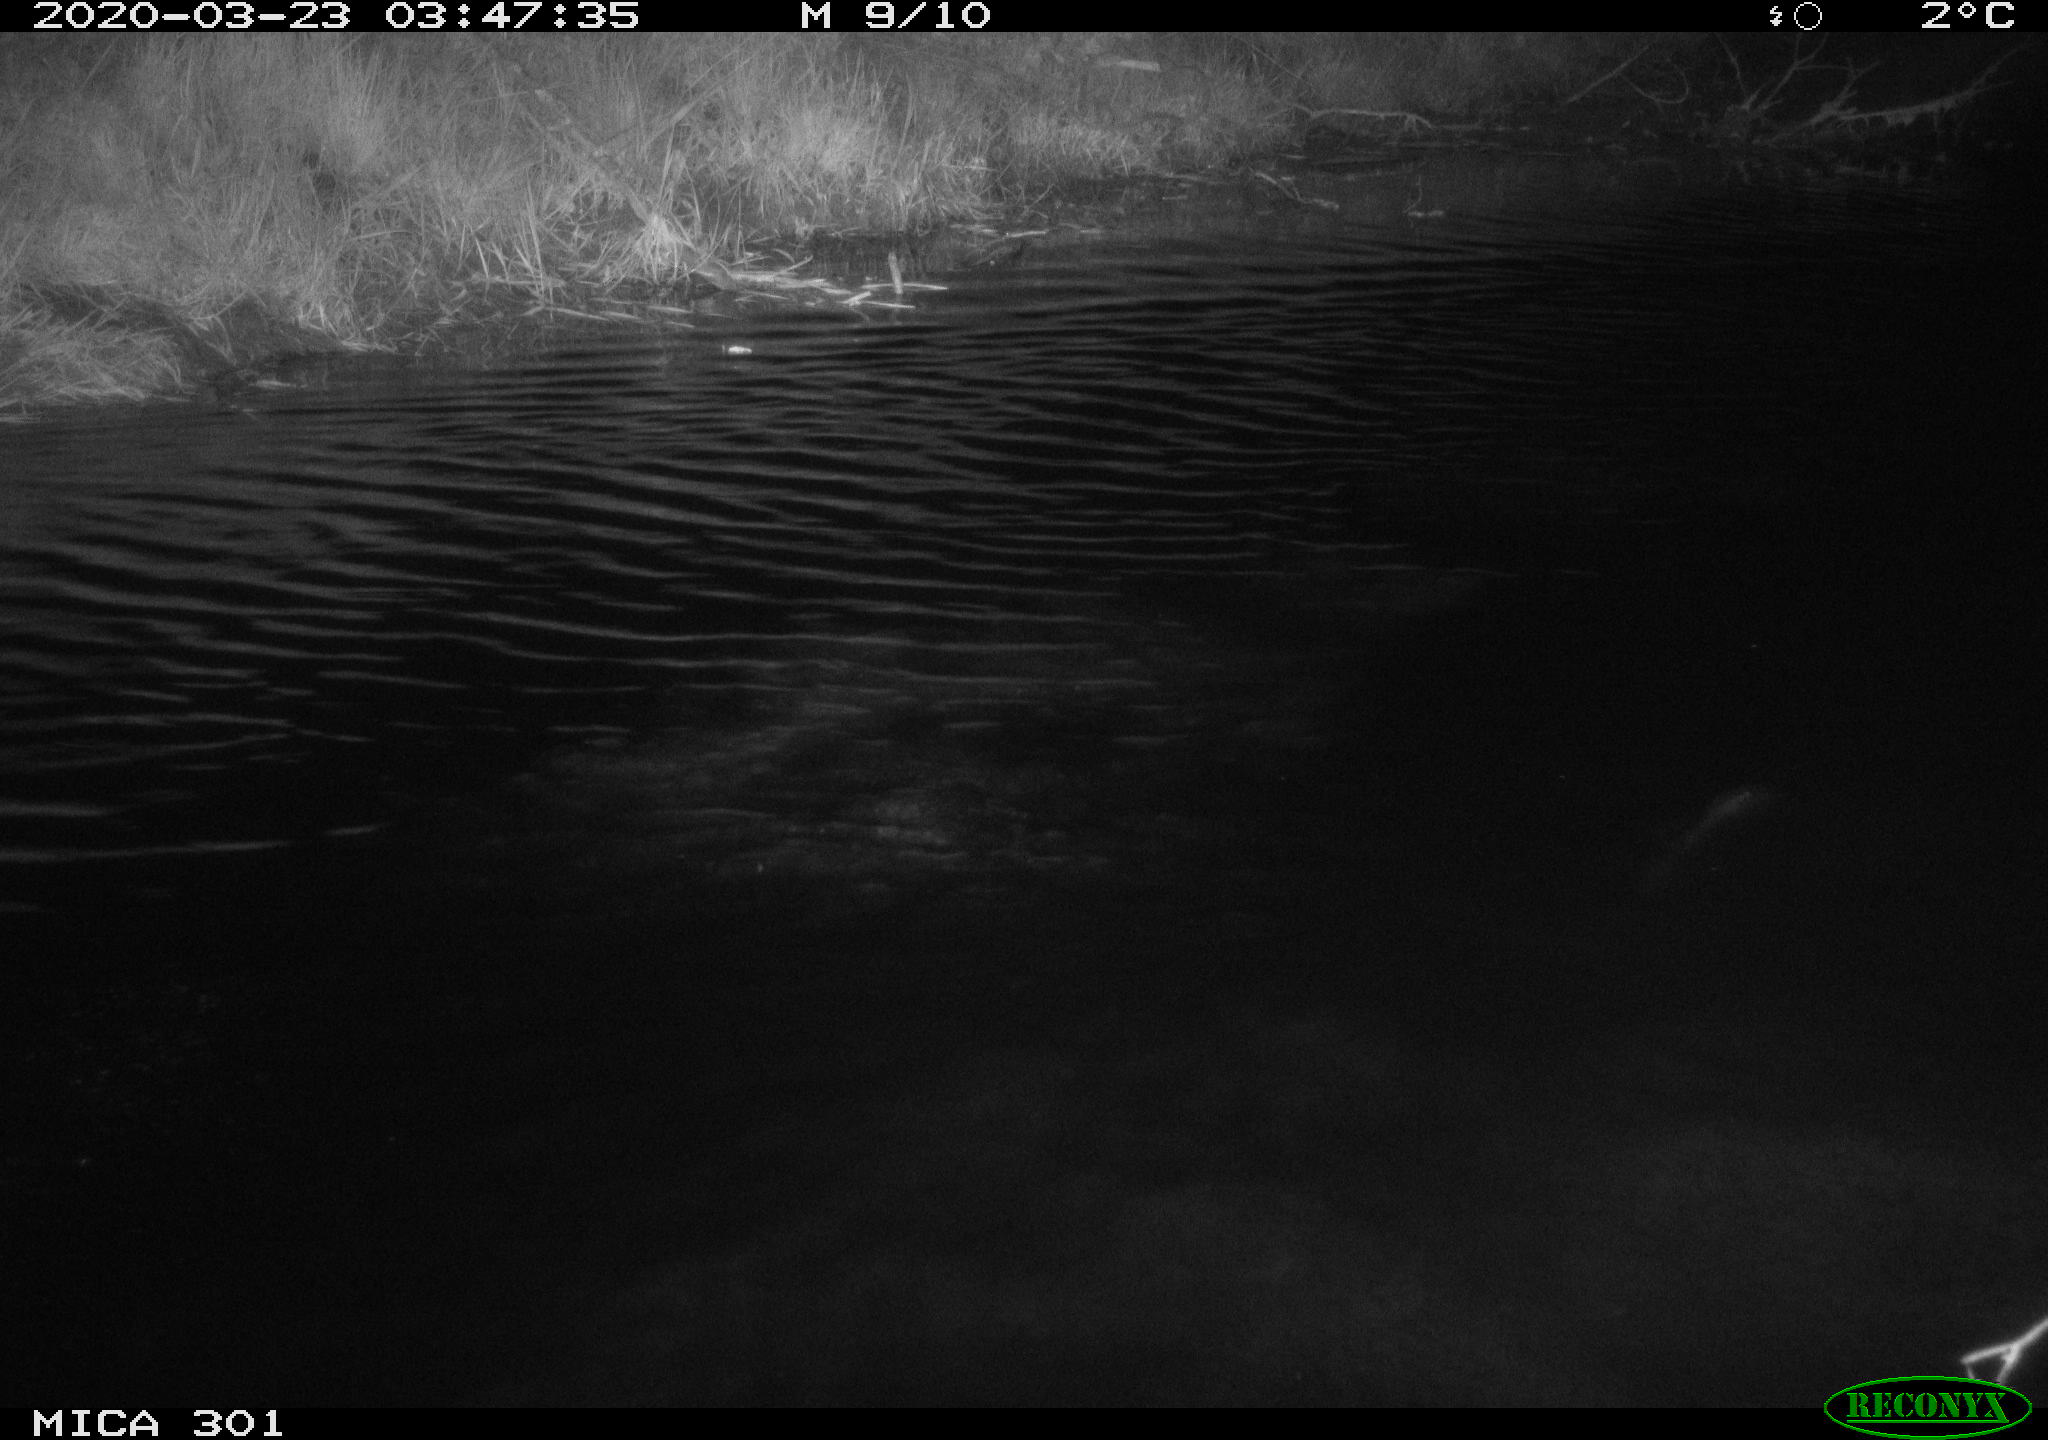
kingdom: Animalia
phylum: Chordata
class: Mammalia
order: Rodentia
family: Castoridae
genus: Castor
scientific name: Castor fiber
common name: Eurasian beaver
